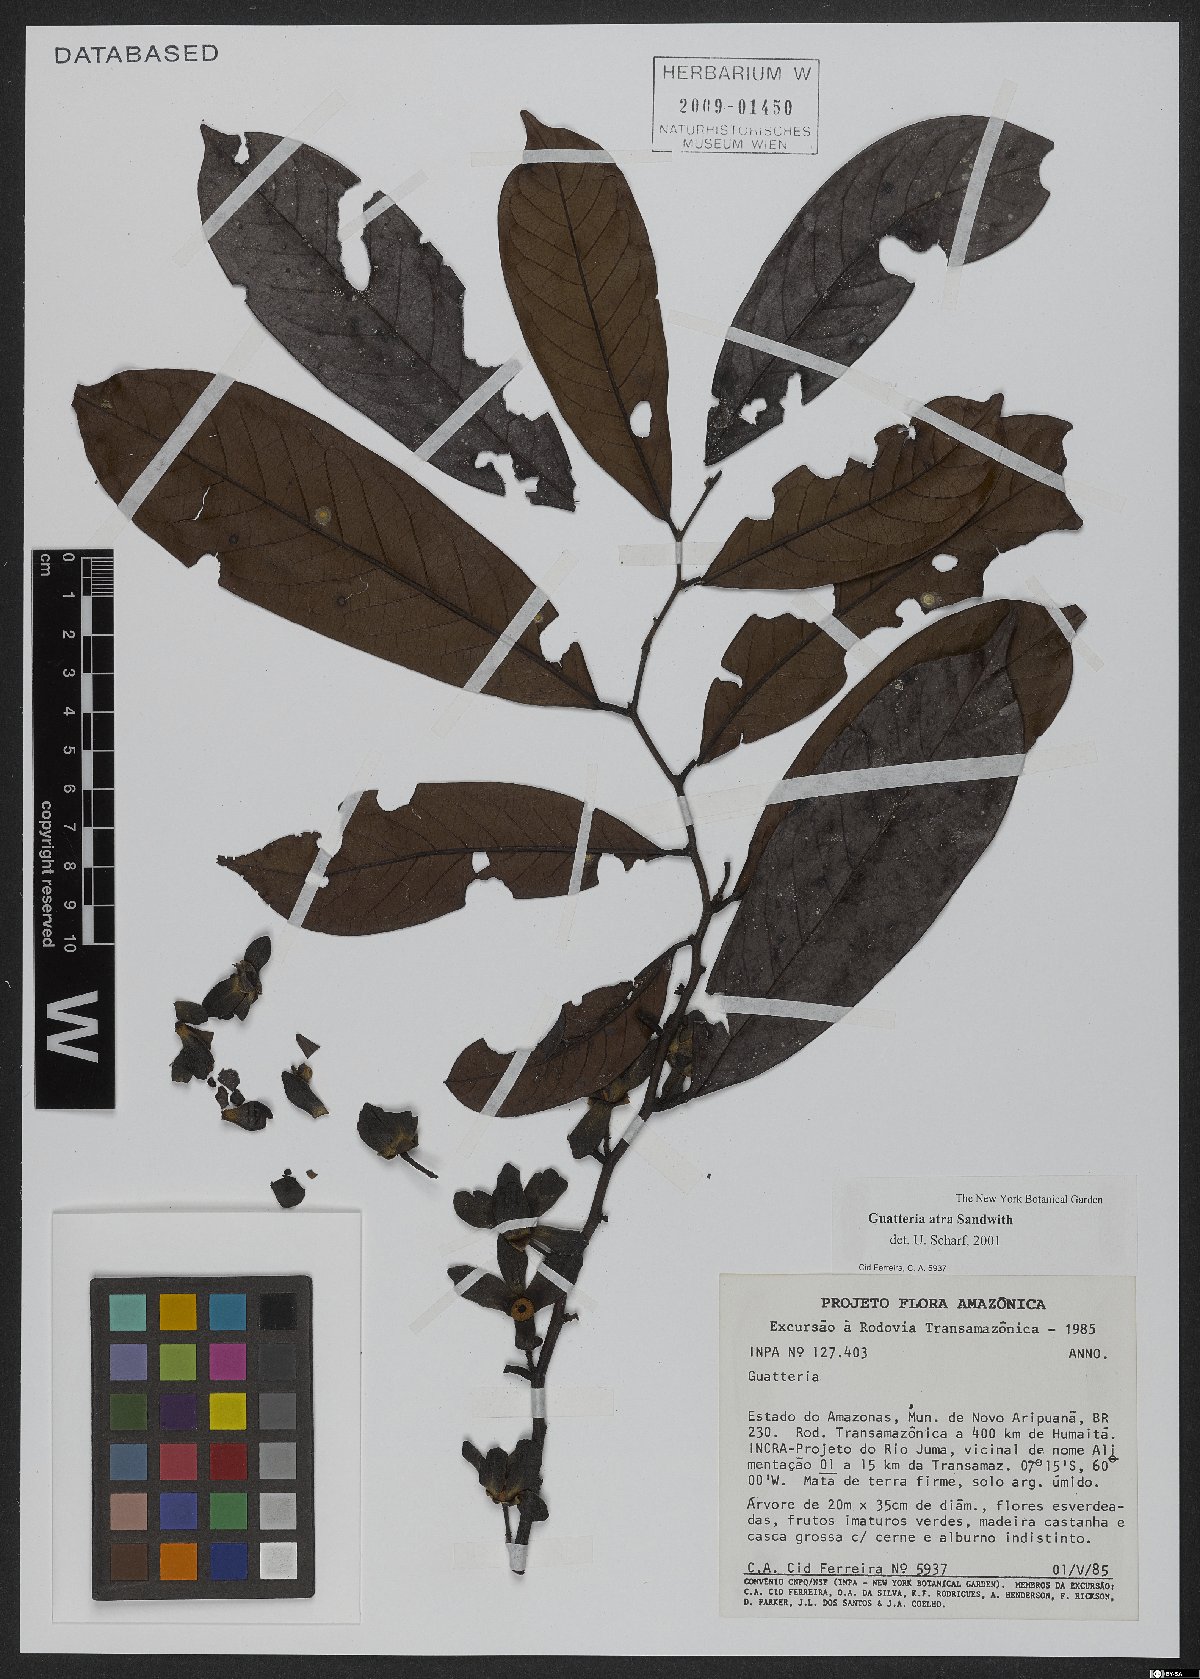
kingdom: Plantae
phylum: Tracheophyta
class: Magnoliopsida
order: Magnoliales
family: Annonaceae
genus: Guatteria
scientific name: Guatteria atra
